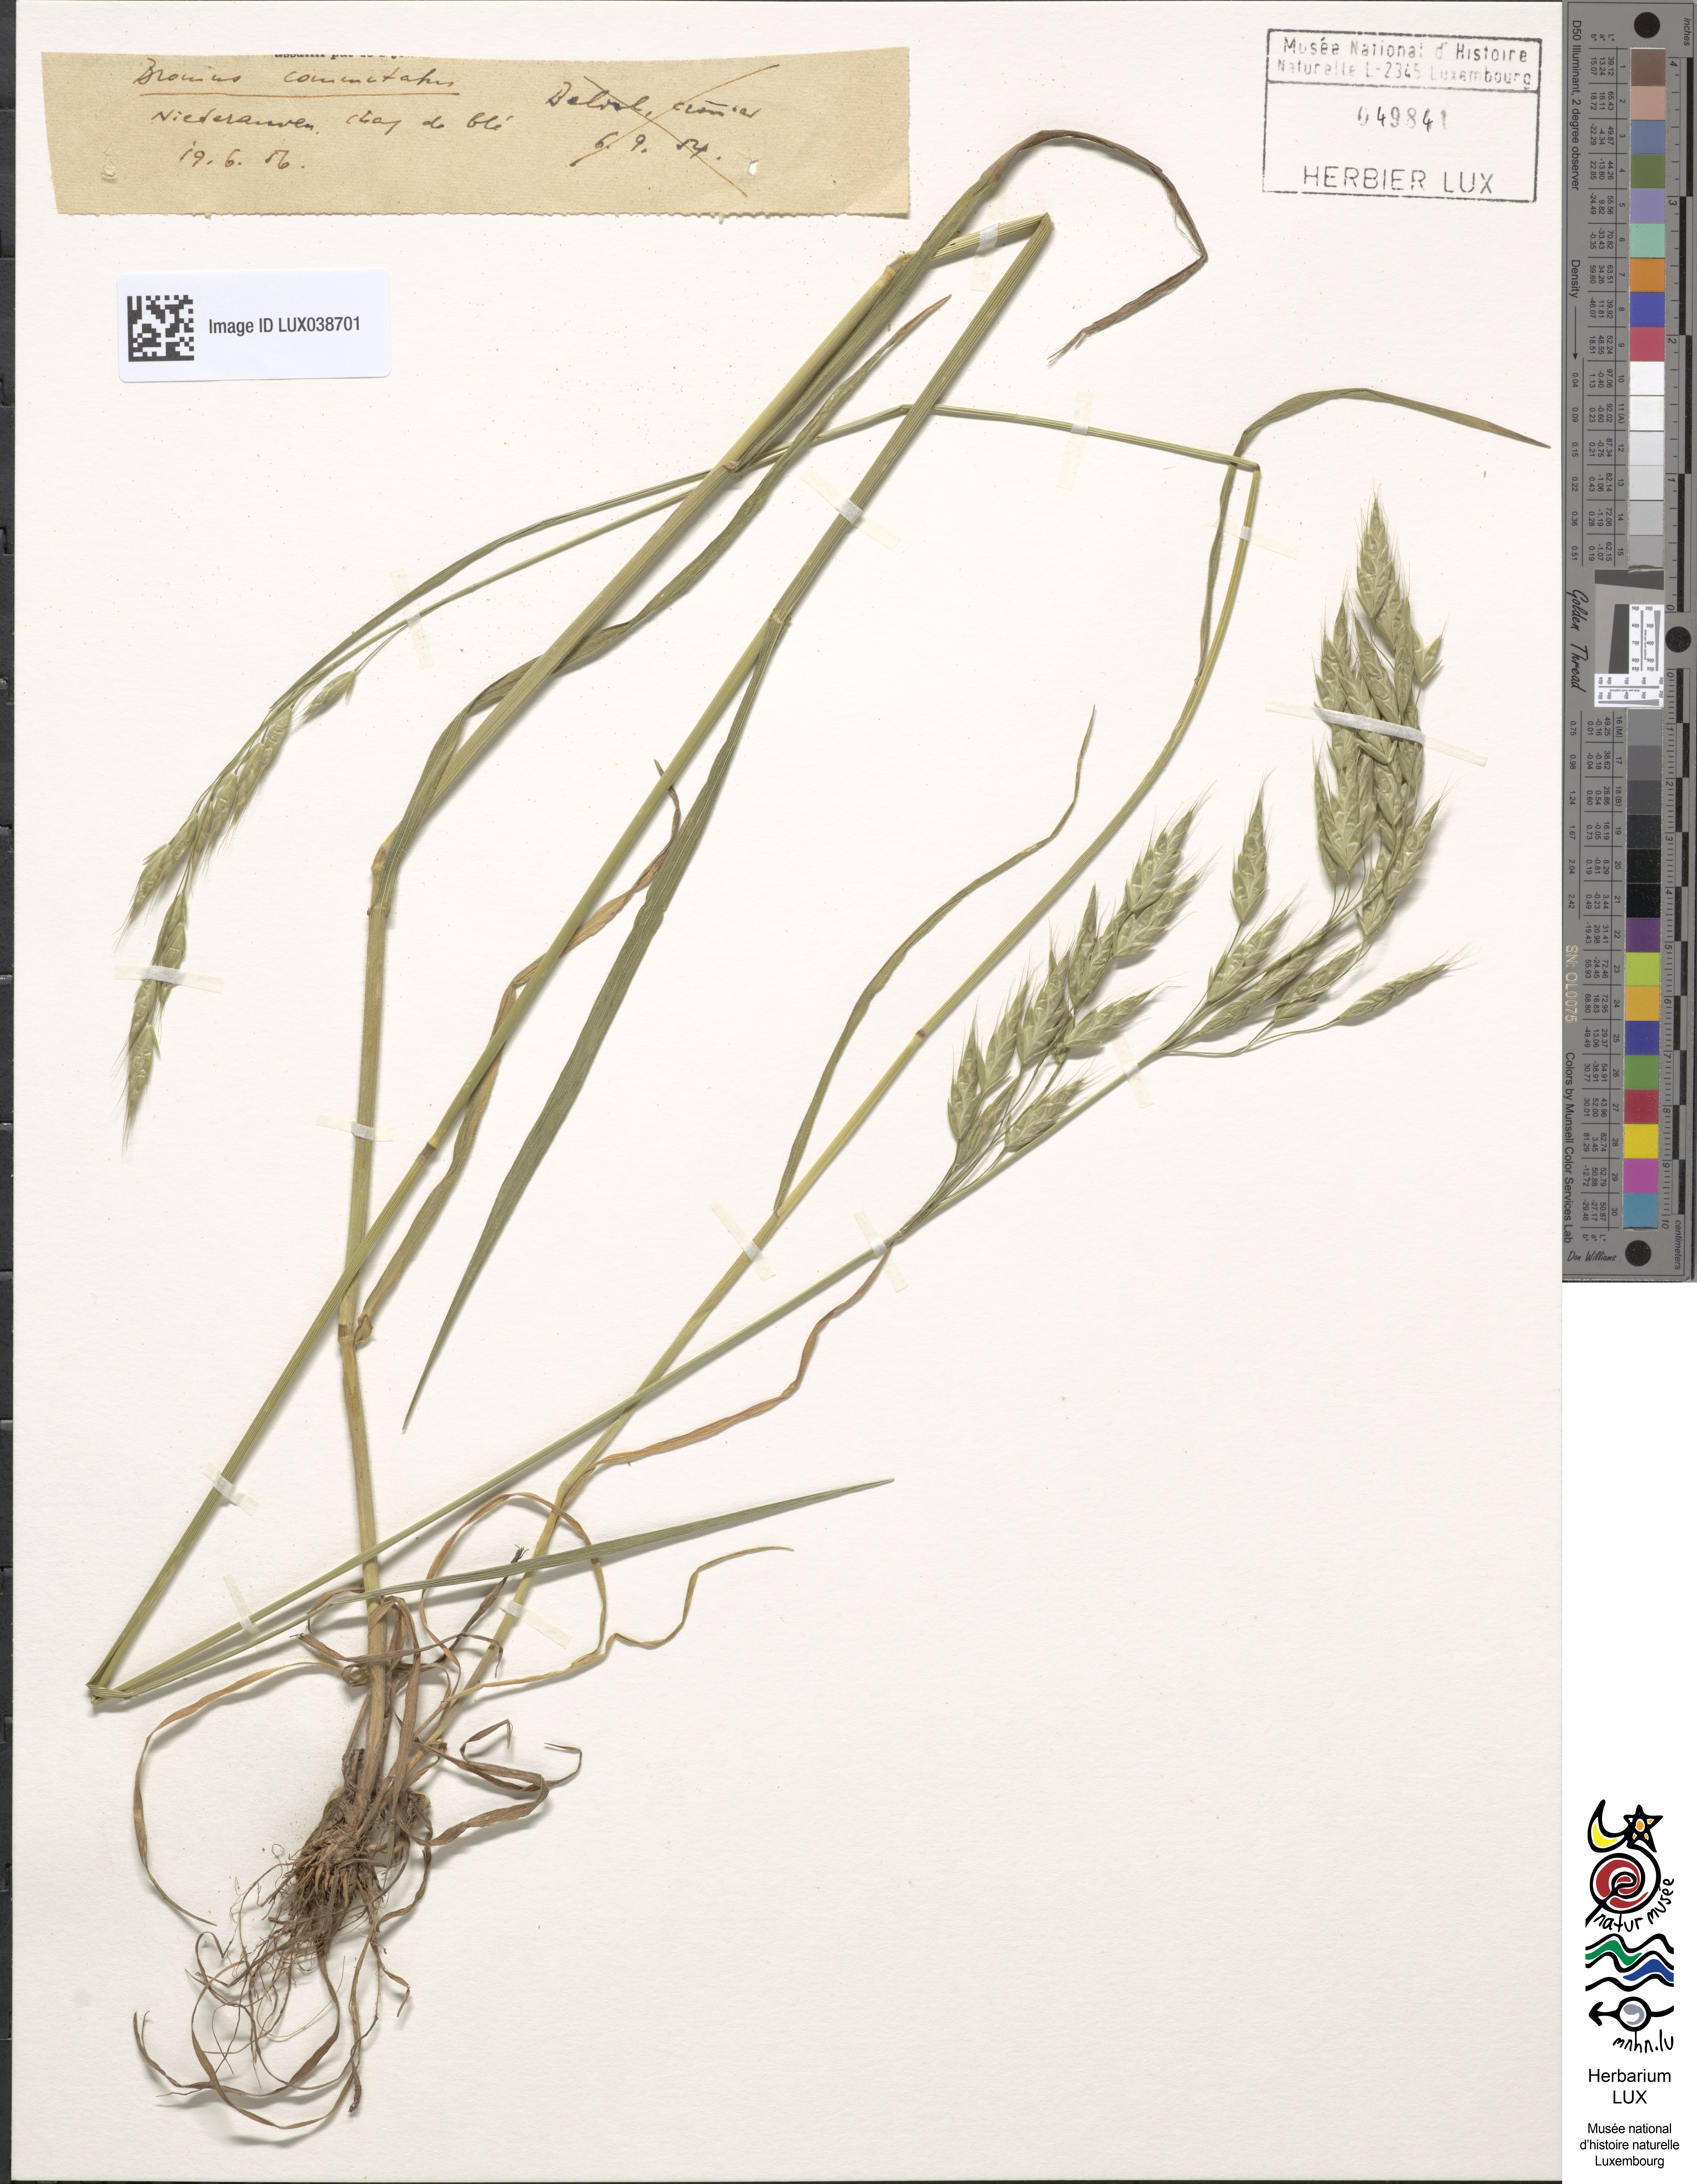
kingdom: Plantae
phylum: Tracheophyta
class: Liliopsida
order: Poales
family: Poaceae
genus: Bromus
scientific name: Bromus commutatus
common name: Meadow brome
